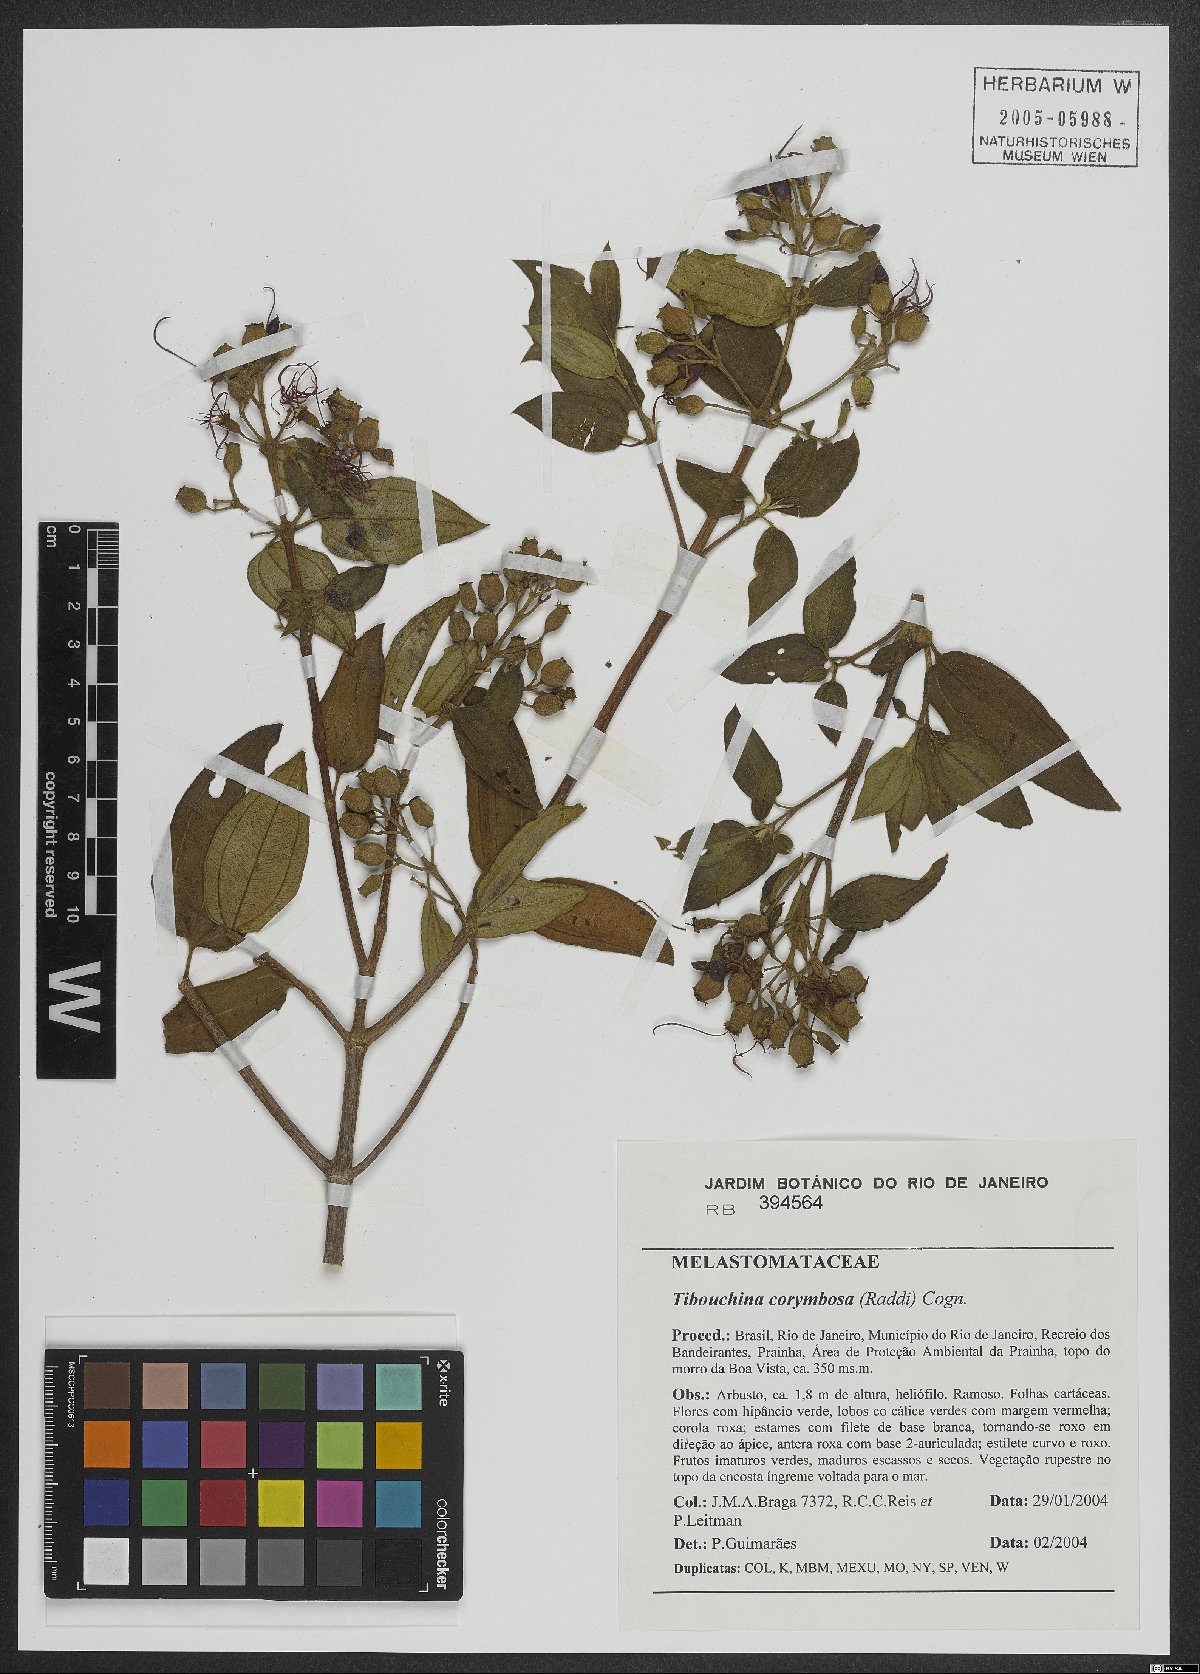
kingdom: Plantae
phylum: Tracheophyta
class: Magnoliopsida
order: Myrtales
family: Melastomataceae
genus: Pleroma
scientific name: Pleroma vimineum
